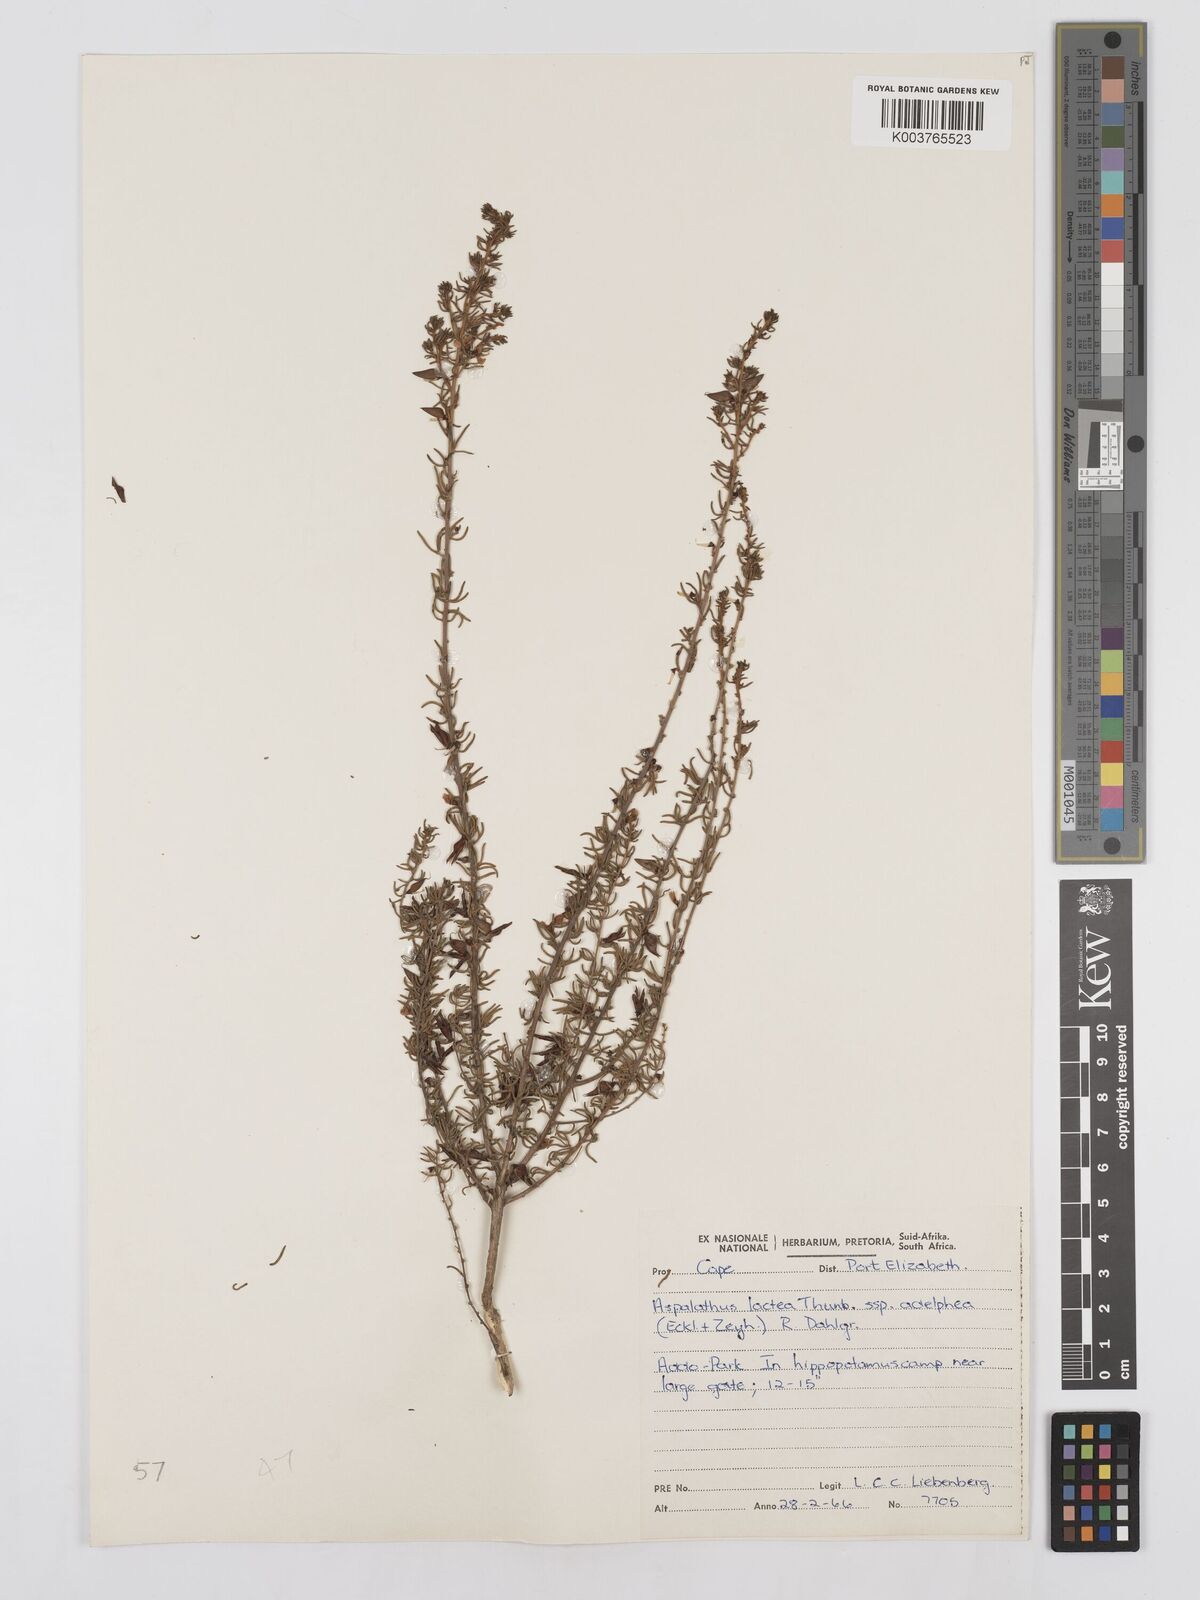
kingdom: Plantae
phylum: Tracheophyta
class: Magnoliopsida
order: Fabales
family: Fabaceae
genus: Aspalathus
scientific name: Aspalathus lactea
